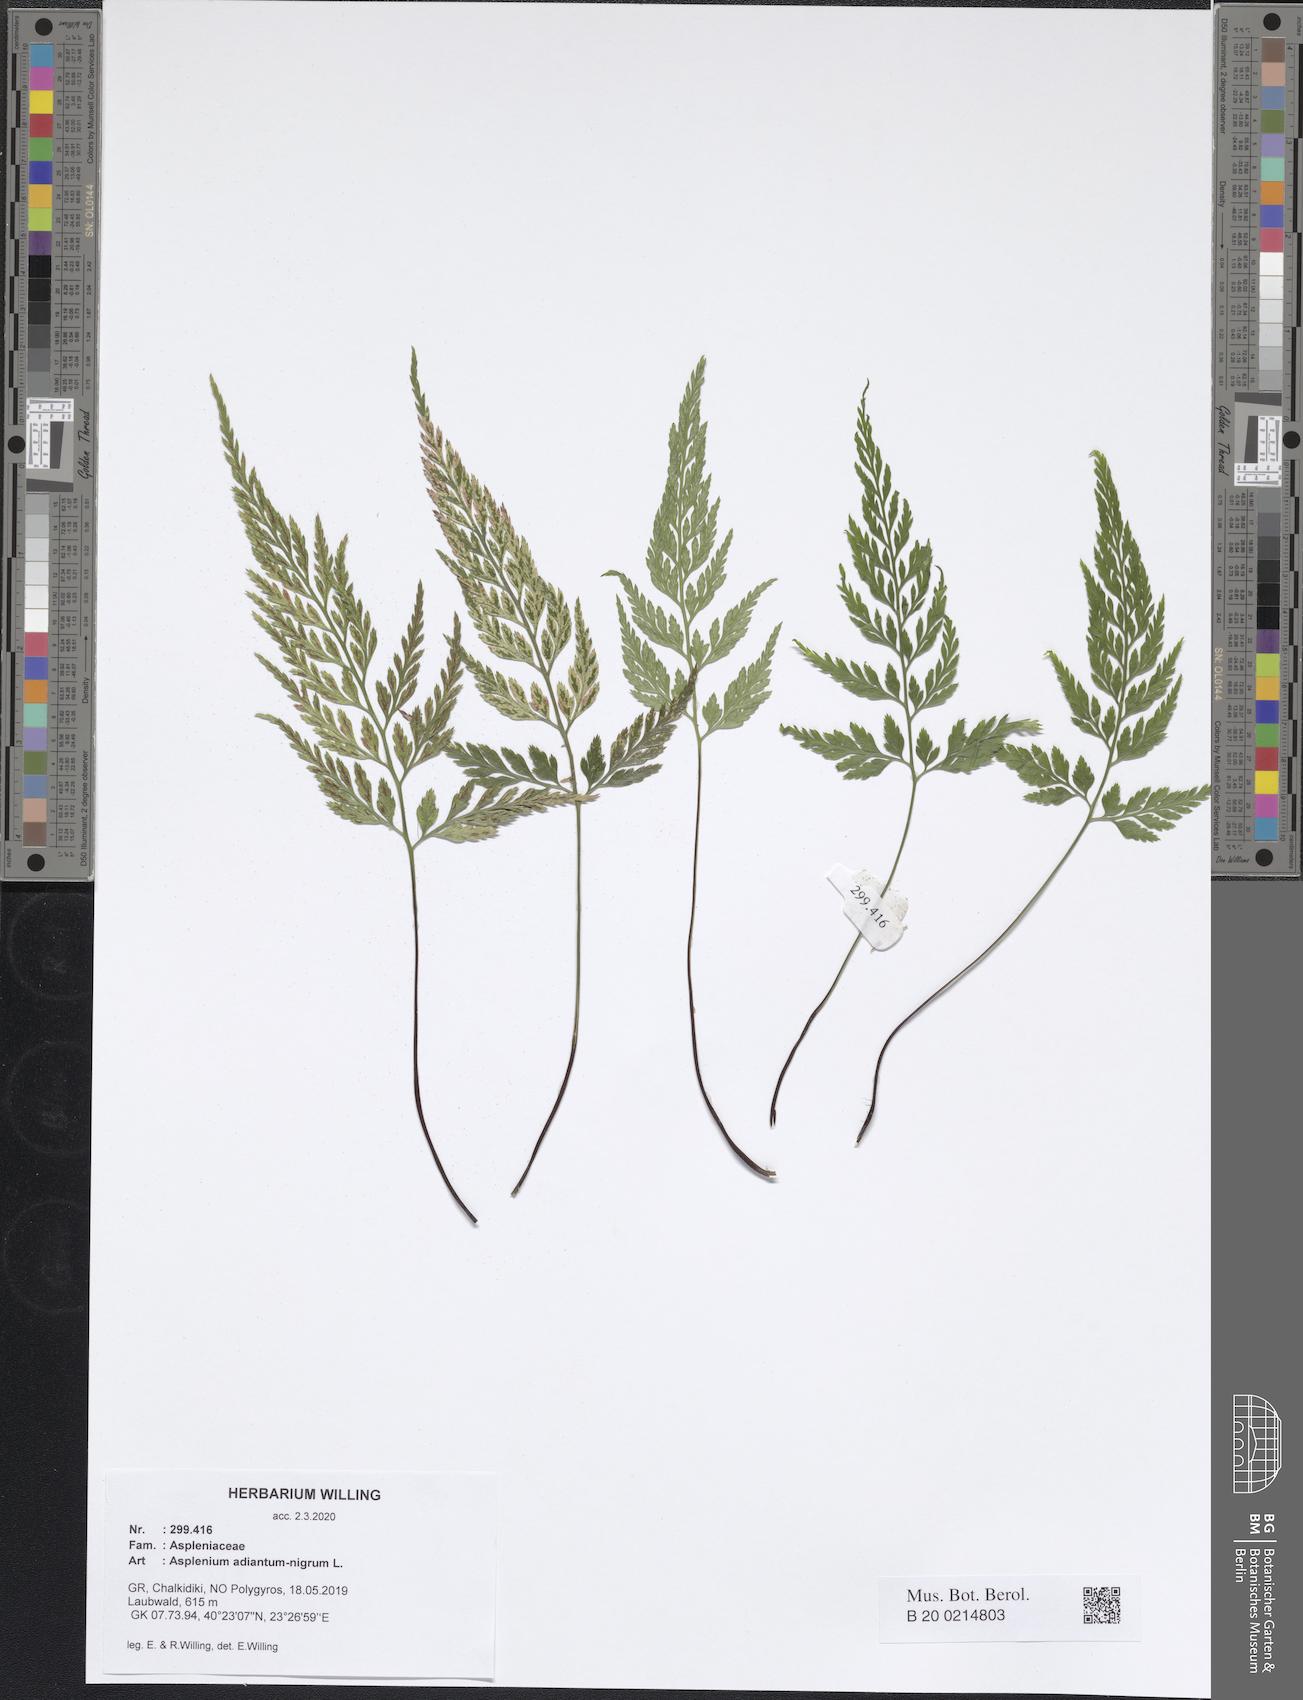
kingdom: Plantae
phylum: Tracheophyta
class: Polypodiopsida
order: Polypodiales
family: Aspleniaceae
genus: Asplenium
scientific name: Asplenium adiantum-nigrum
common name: Black spleenwort
